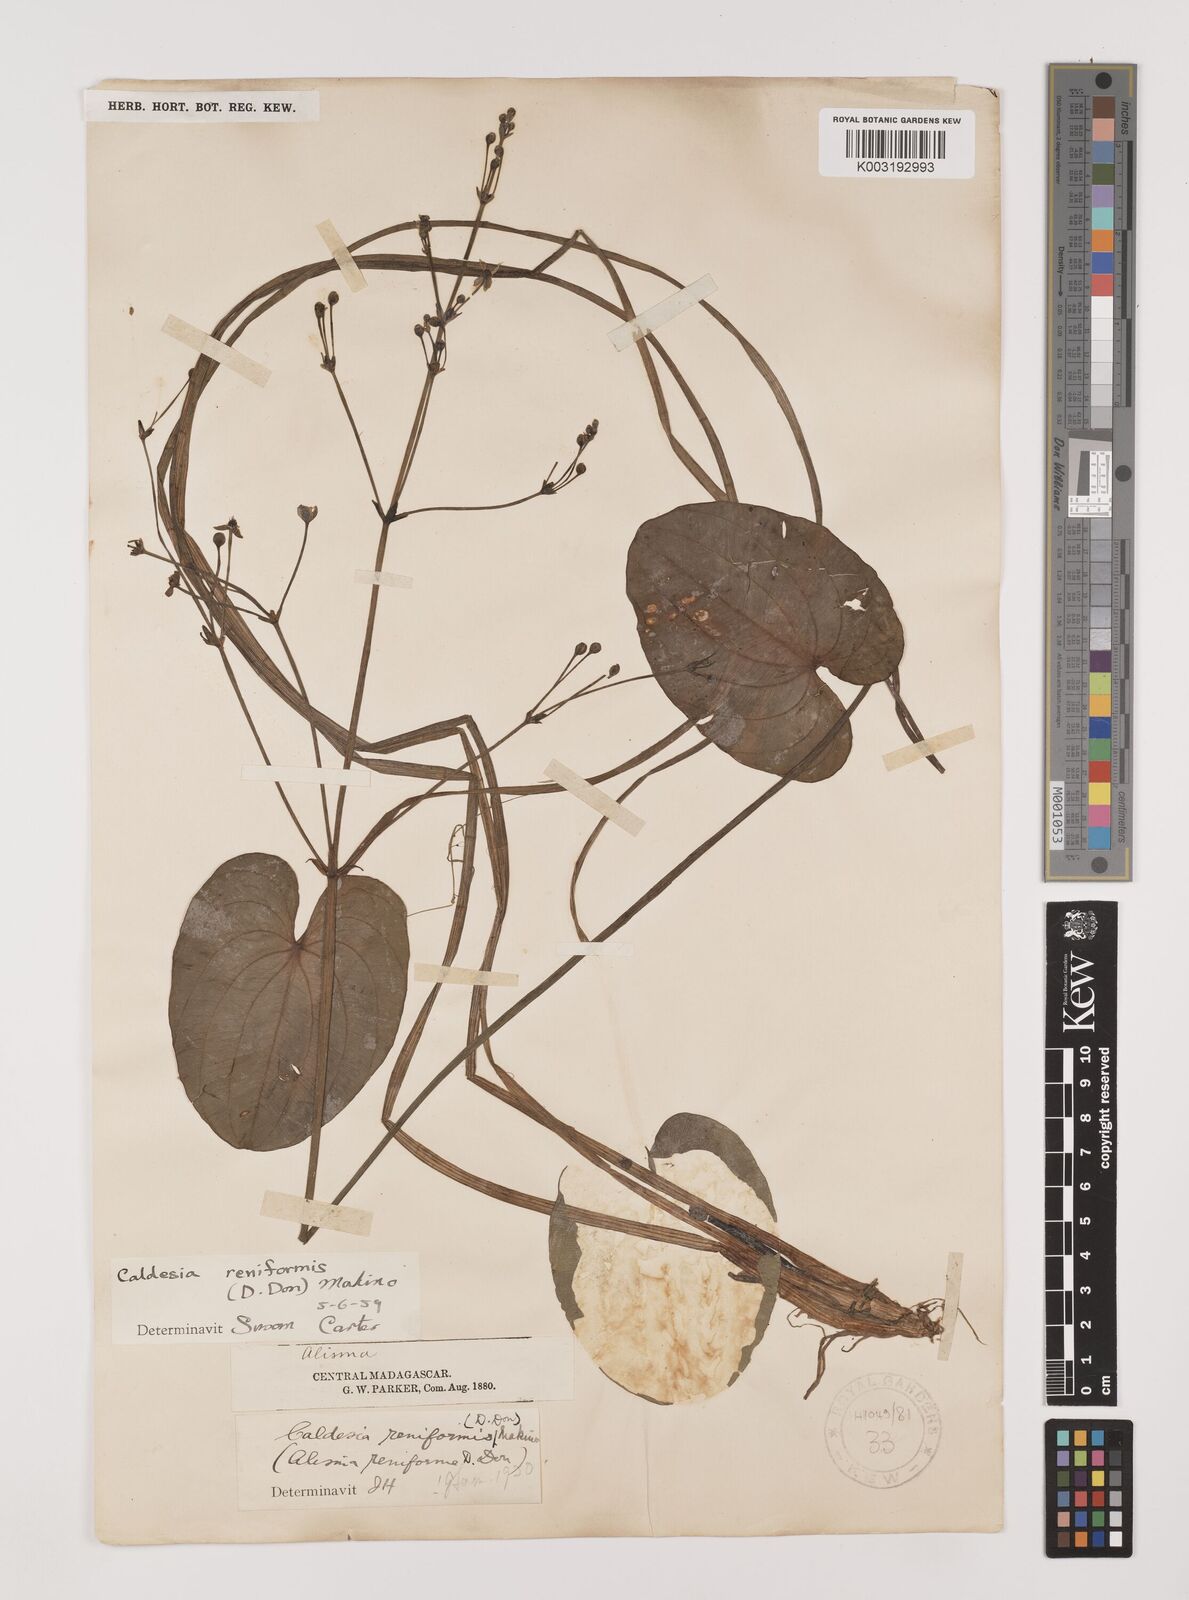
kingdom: Plantae
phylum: Tracheophyta
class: Liliopsida
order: Alismatales
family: Alismataceae
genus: Caldesia
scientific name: Caldesia parnassifolia
